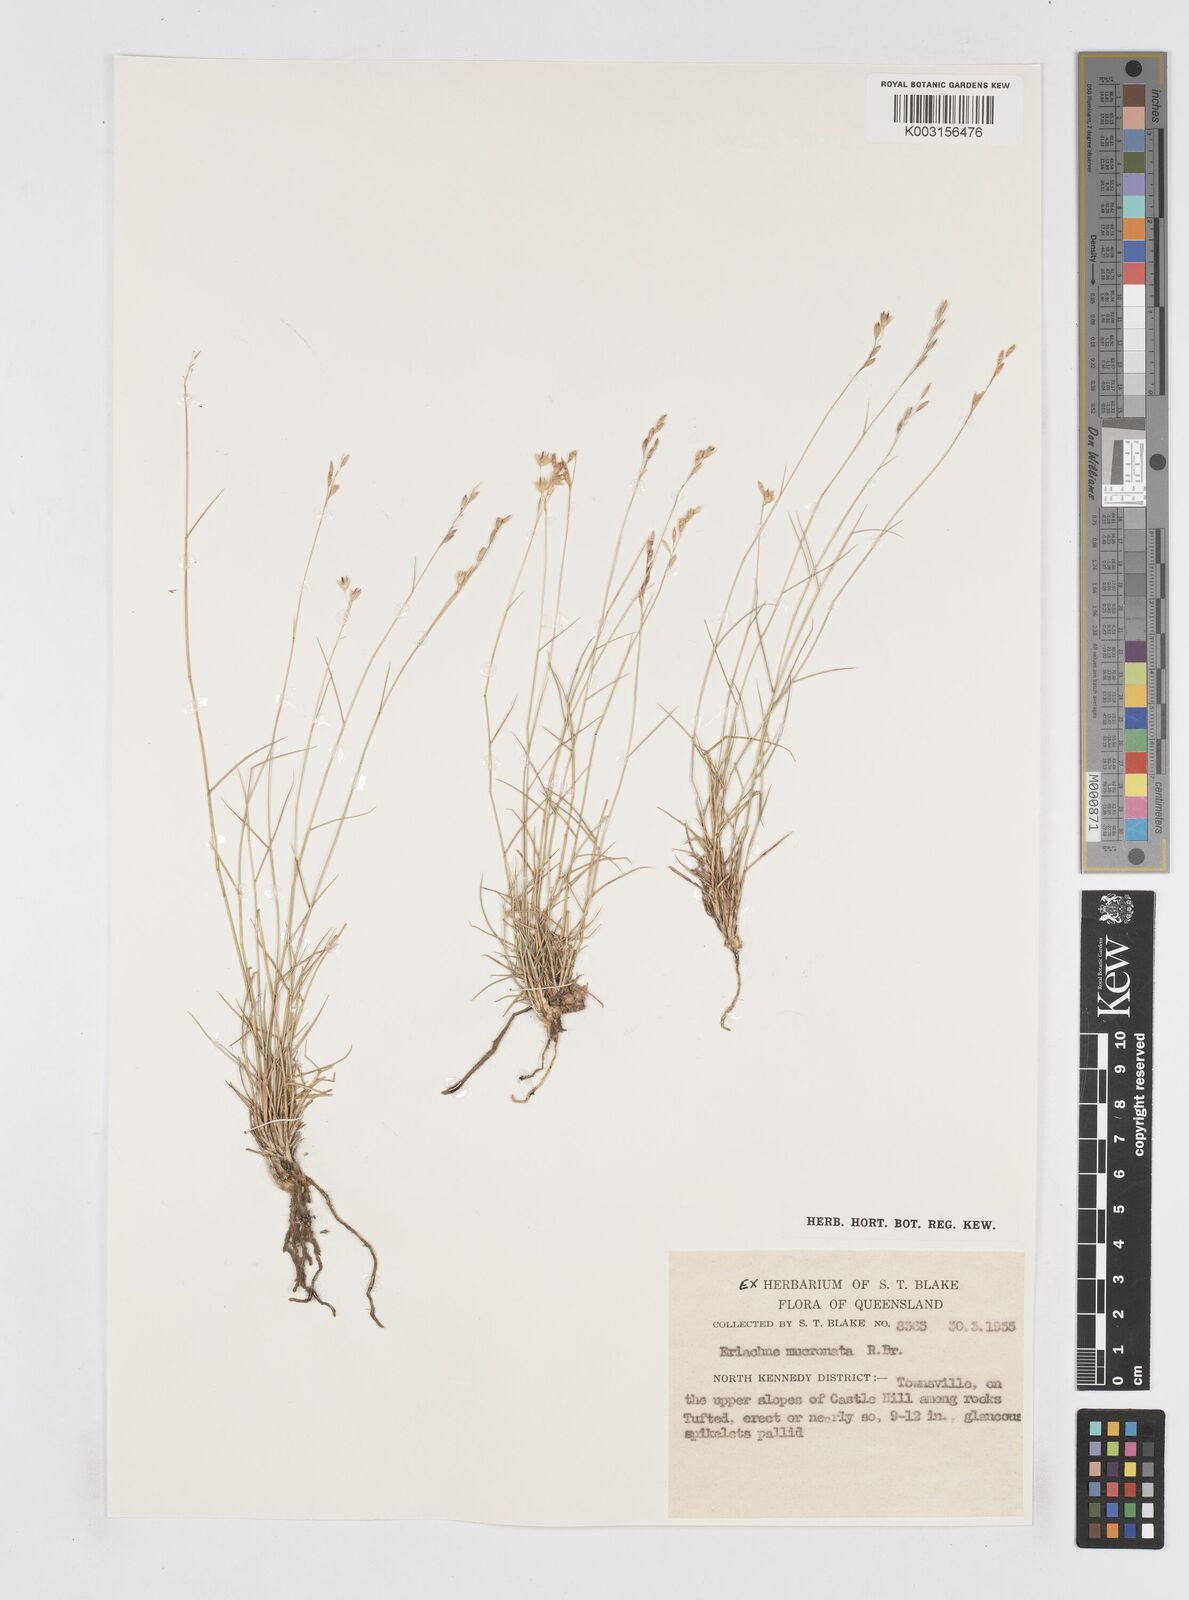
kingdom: Plantae
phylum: Tracheophyta
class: Liliopsida
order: Poales
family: Poaceae
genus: Eriachne
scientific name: Eriachne mucronata
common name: Mountain wanderrie grass
